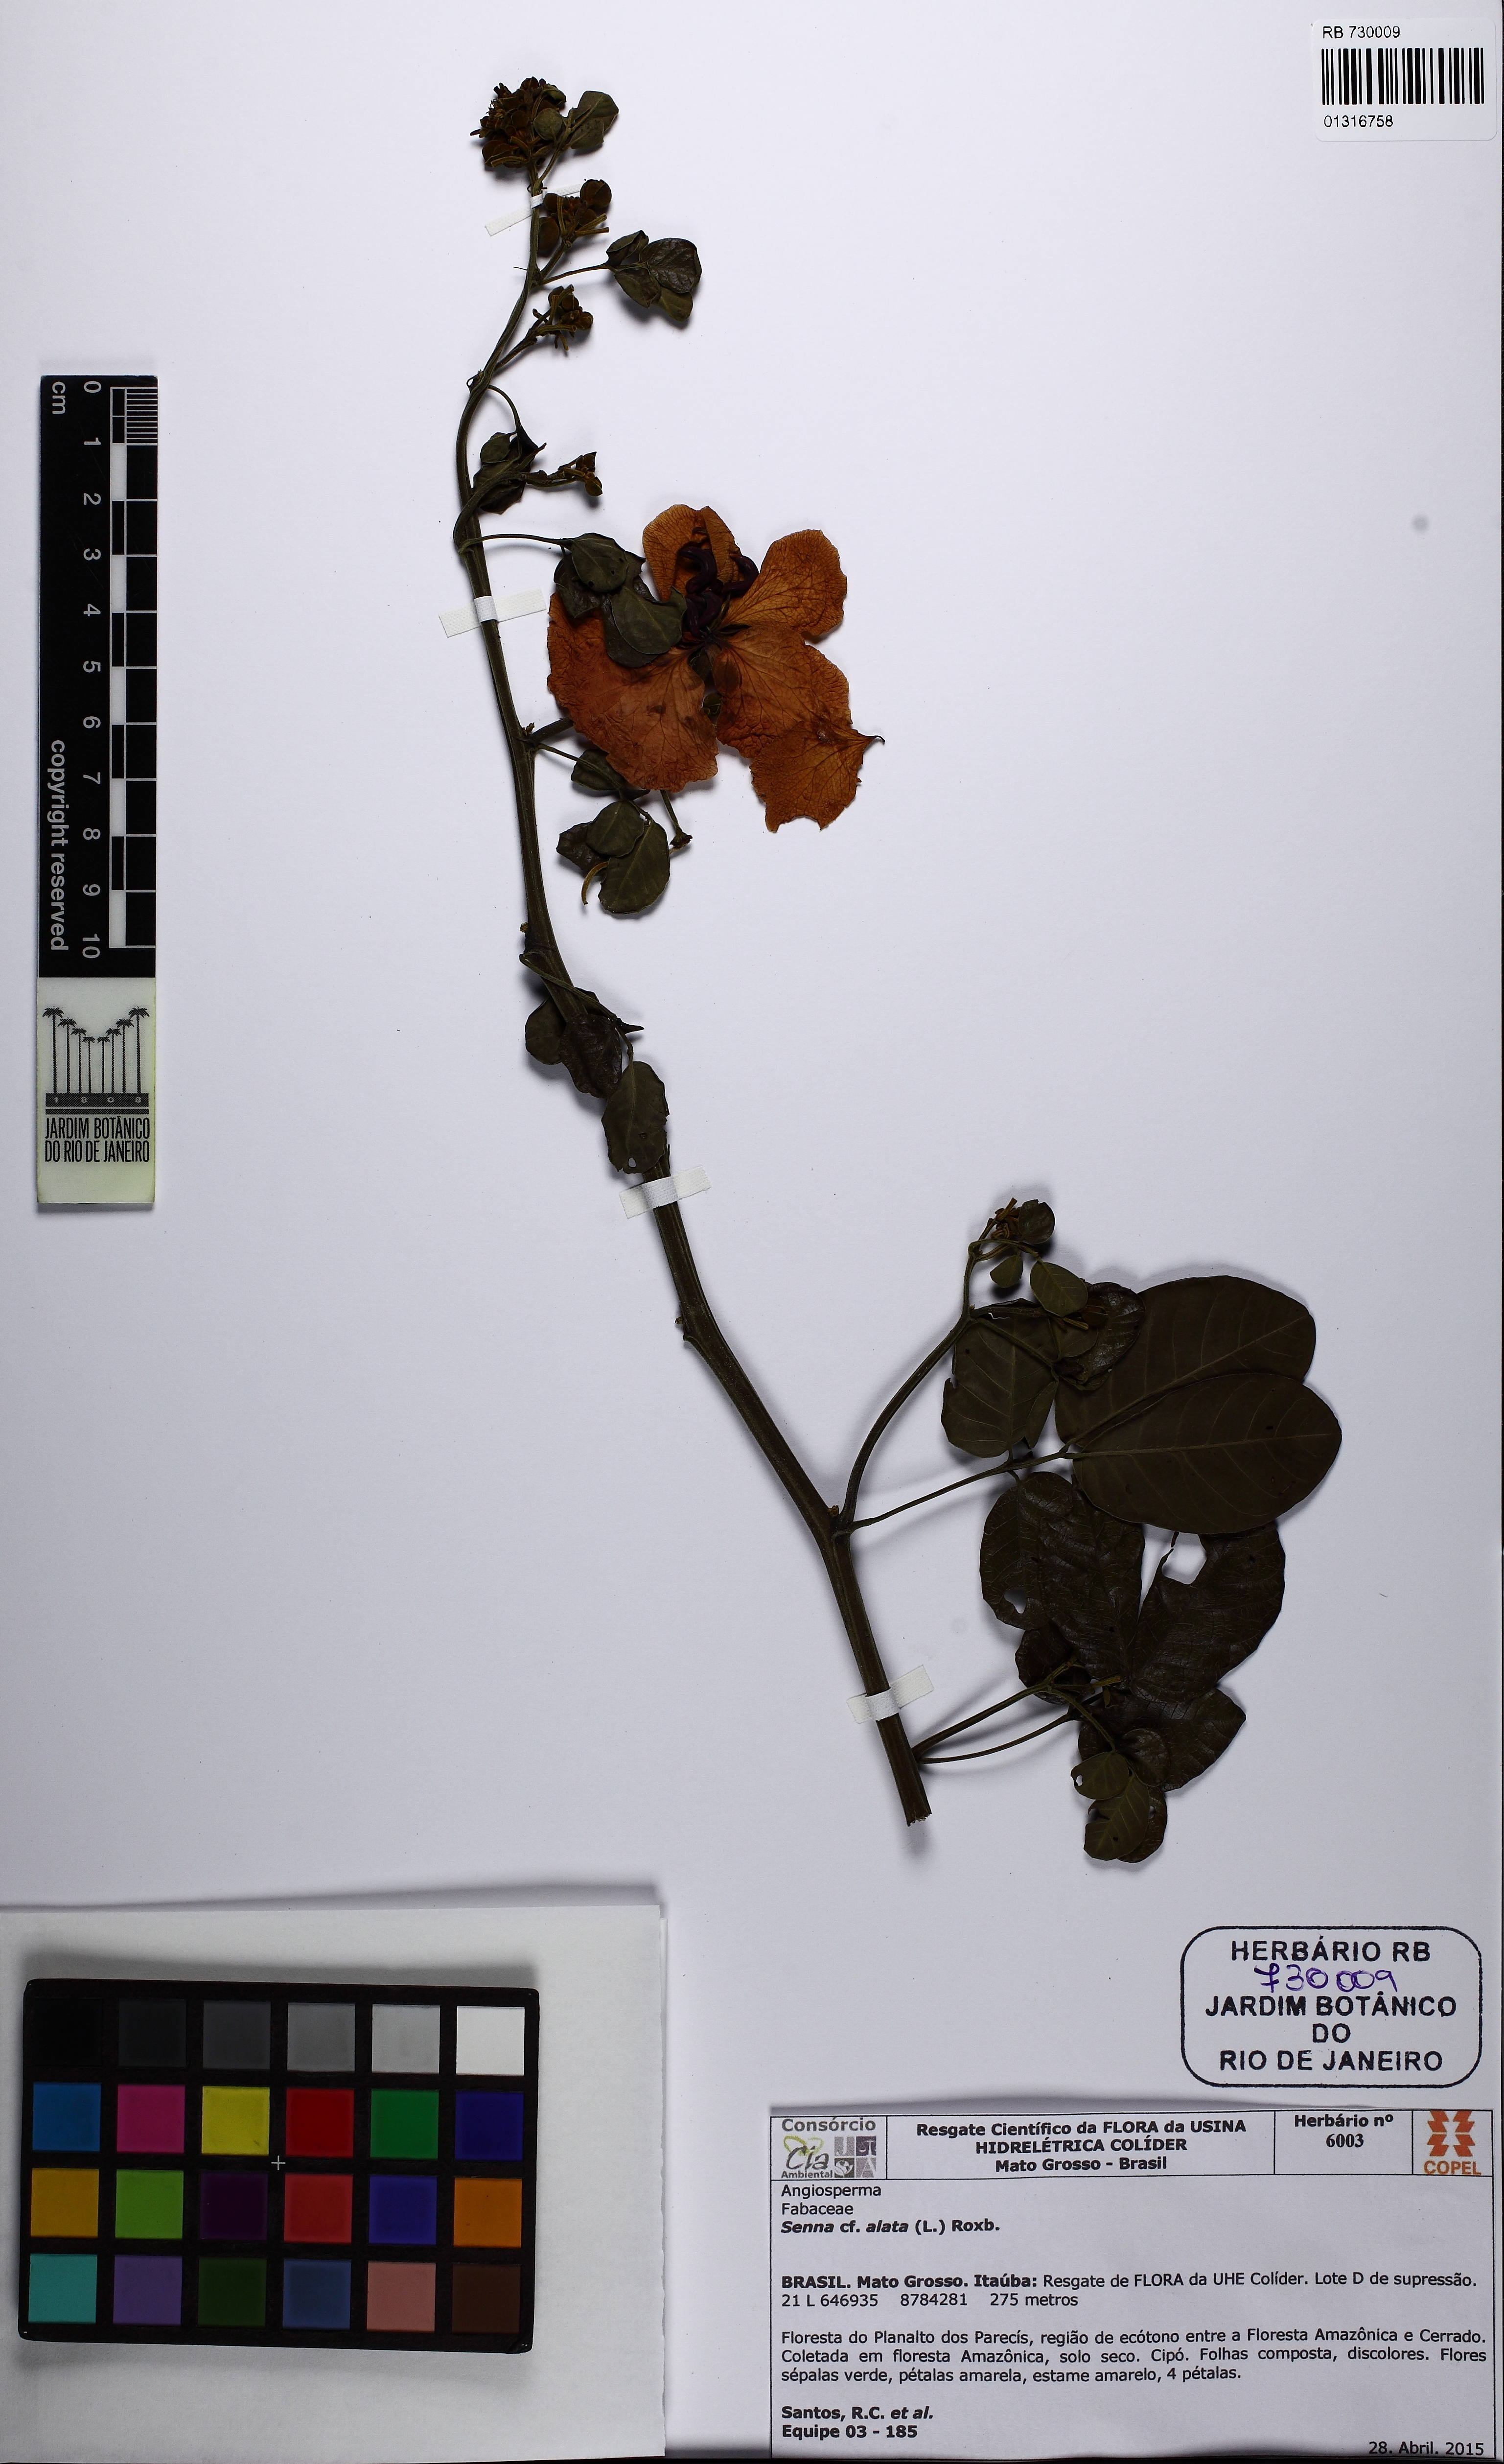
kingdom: Plantae
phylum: Tracheophyta
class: Magnoliopsida
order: Fabales
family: Fabaceae
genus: Senna
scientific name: Senna alata
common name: Emperor's candlesticks
